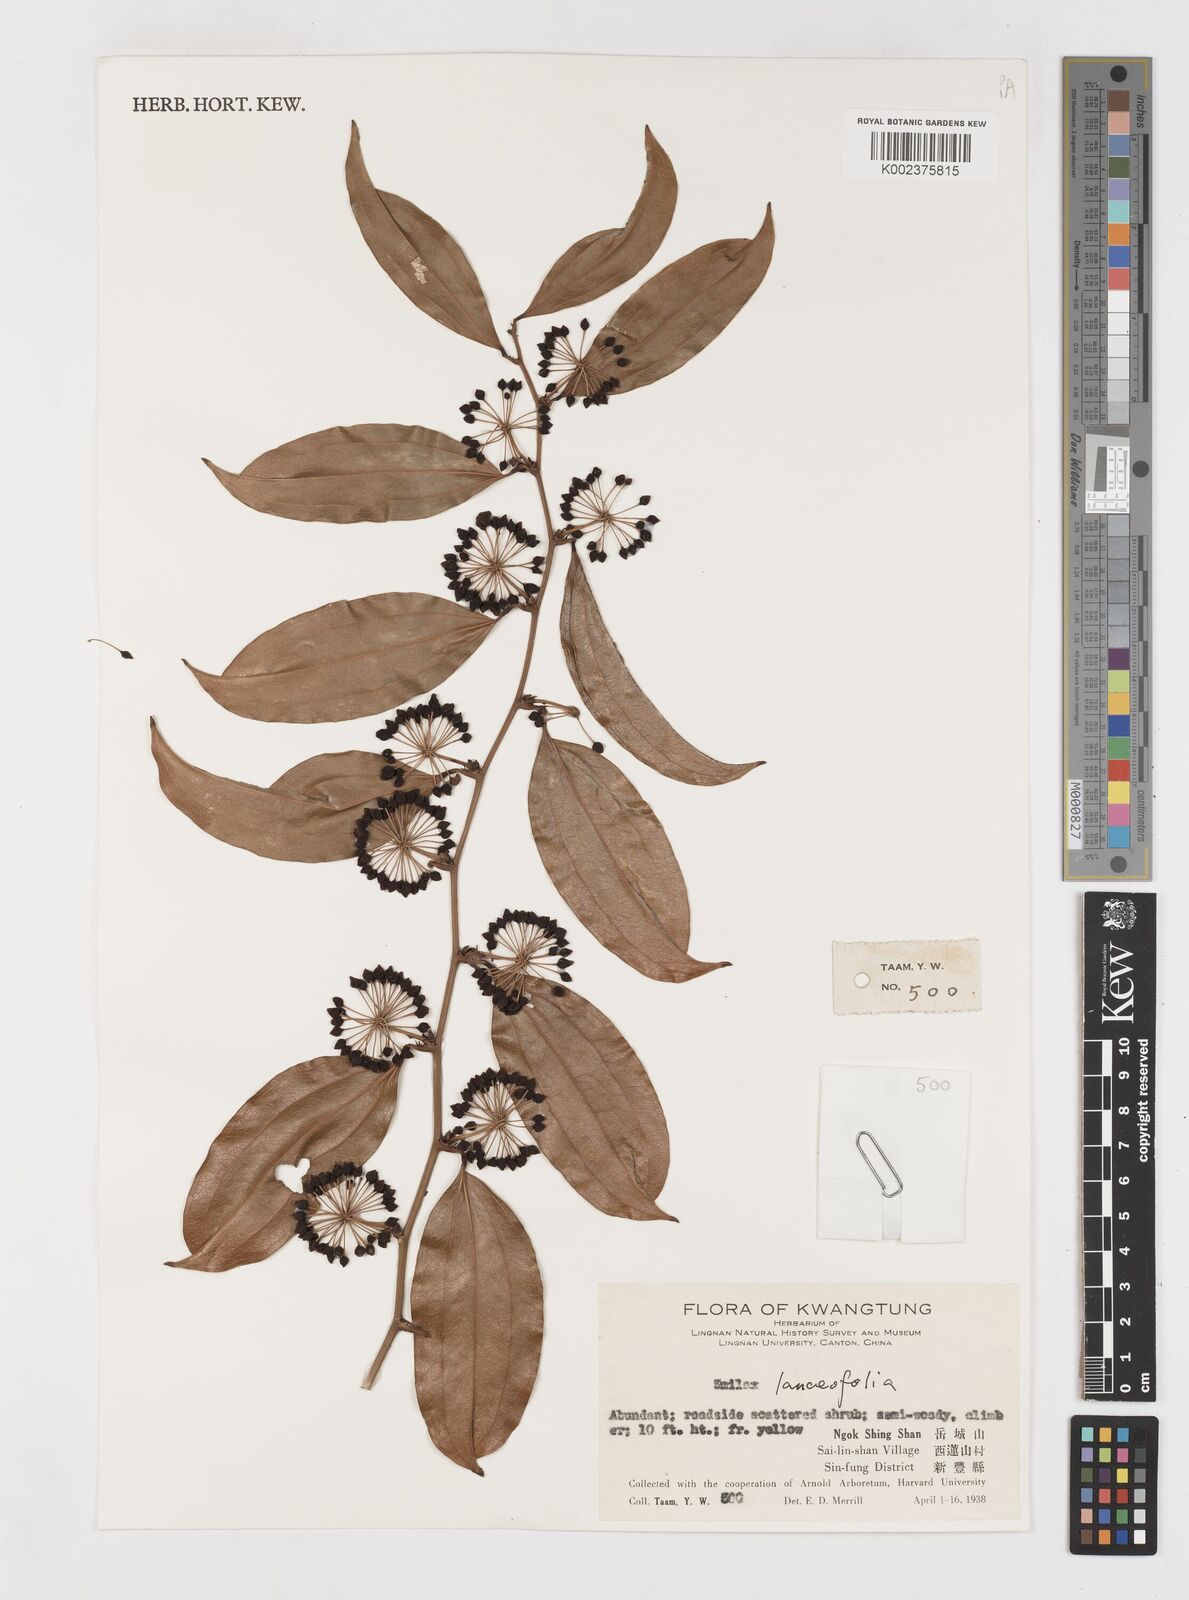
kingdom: Plantae
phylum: Tracheophyta
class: Liliopsida
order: Liliales
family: Smilacaceae
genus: Smilax
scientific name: Smilax
